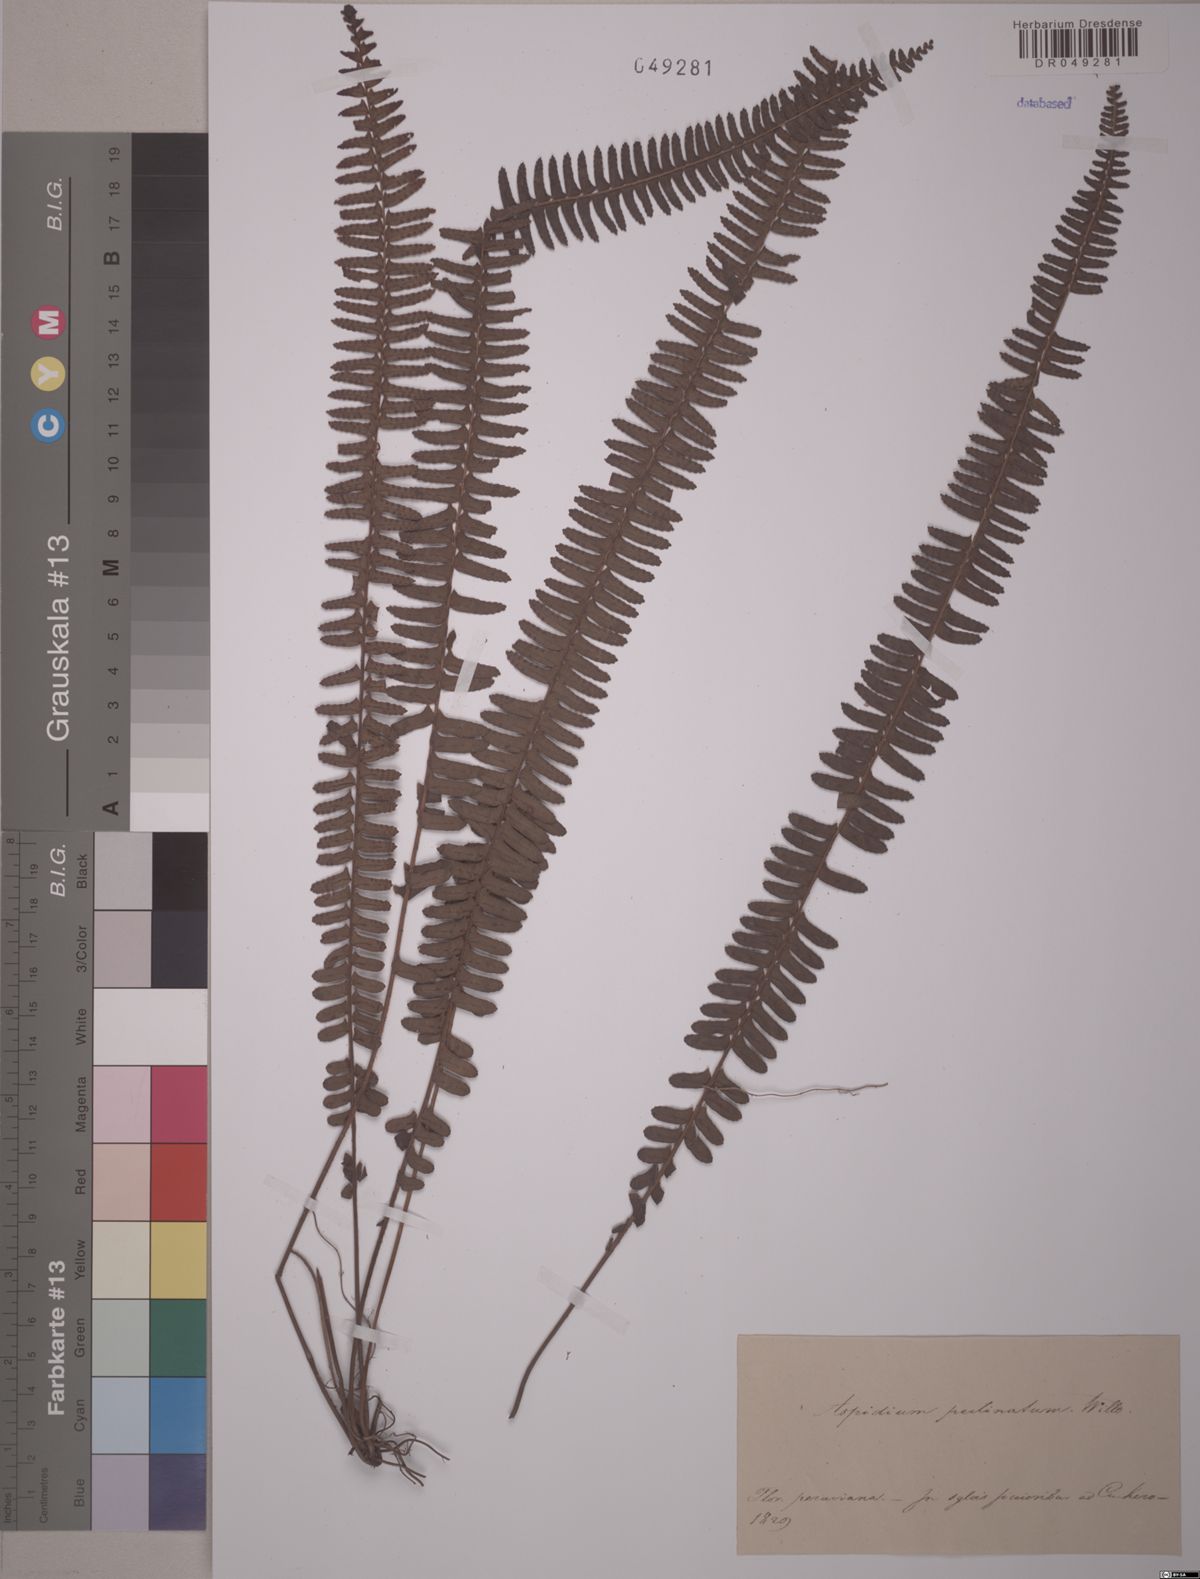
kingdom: Plantae
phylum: Tracheophyta
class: Polypodiopsida
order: Polypodiales
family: Nephrolepidaceae
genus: Nephrolepis
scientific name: Nephrolepis pectinata
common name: Basket fern
